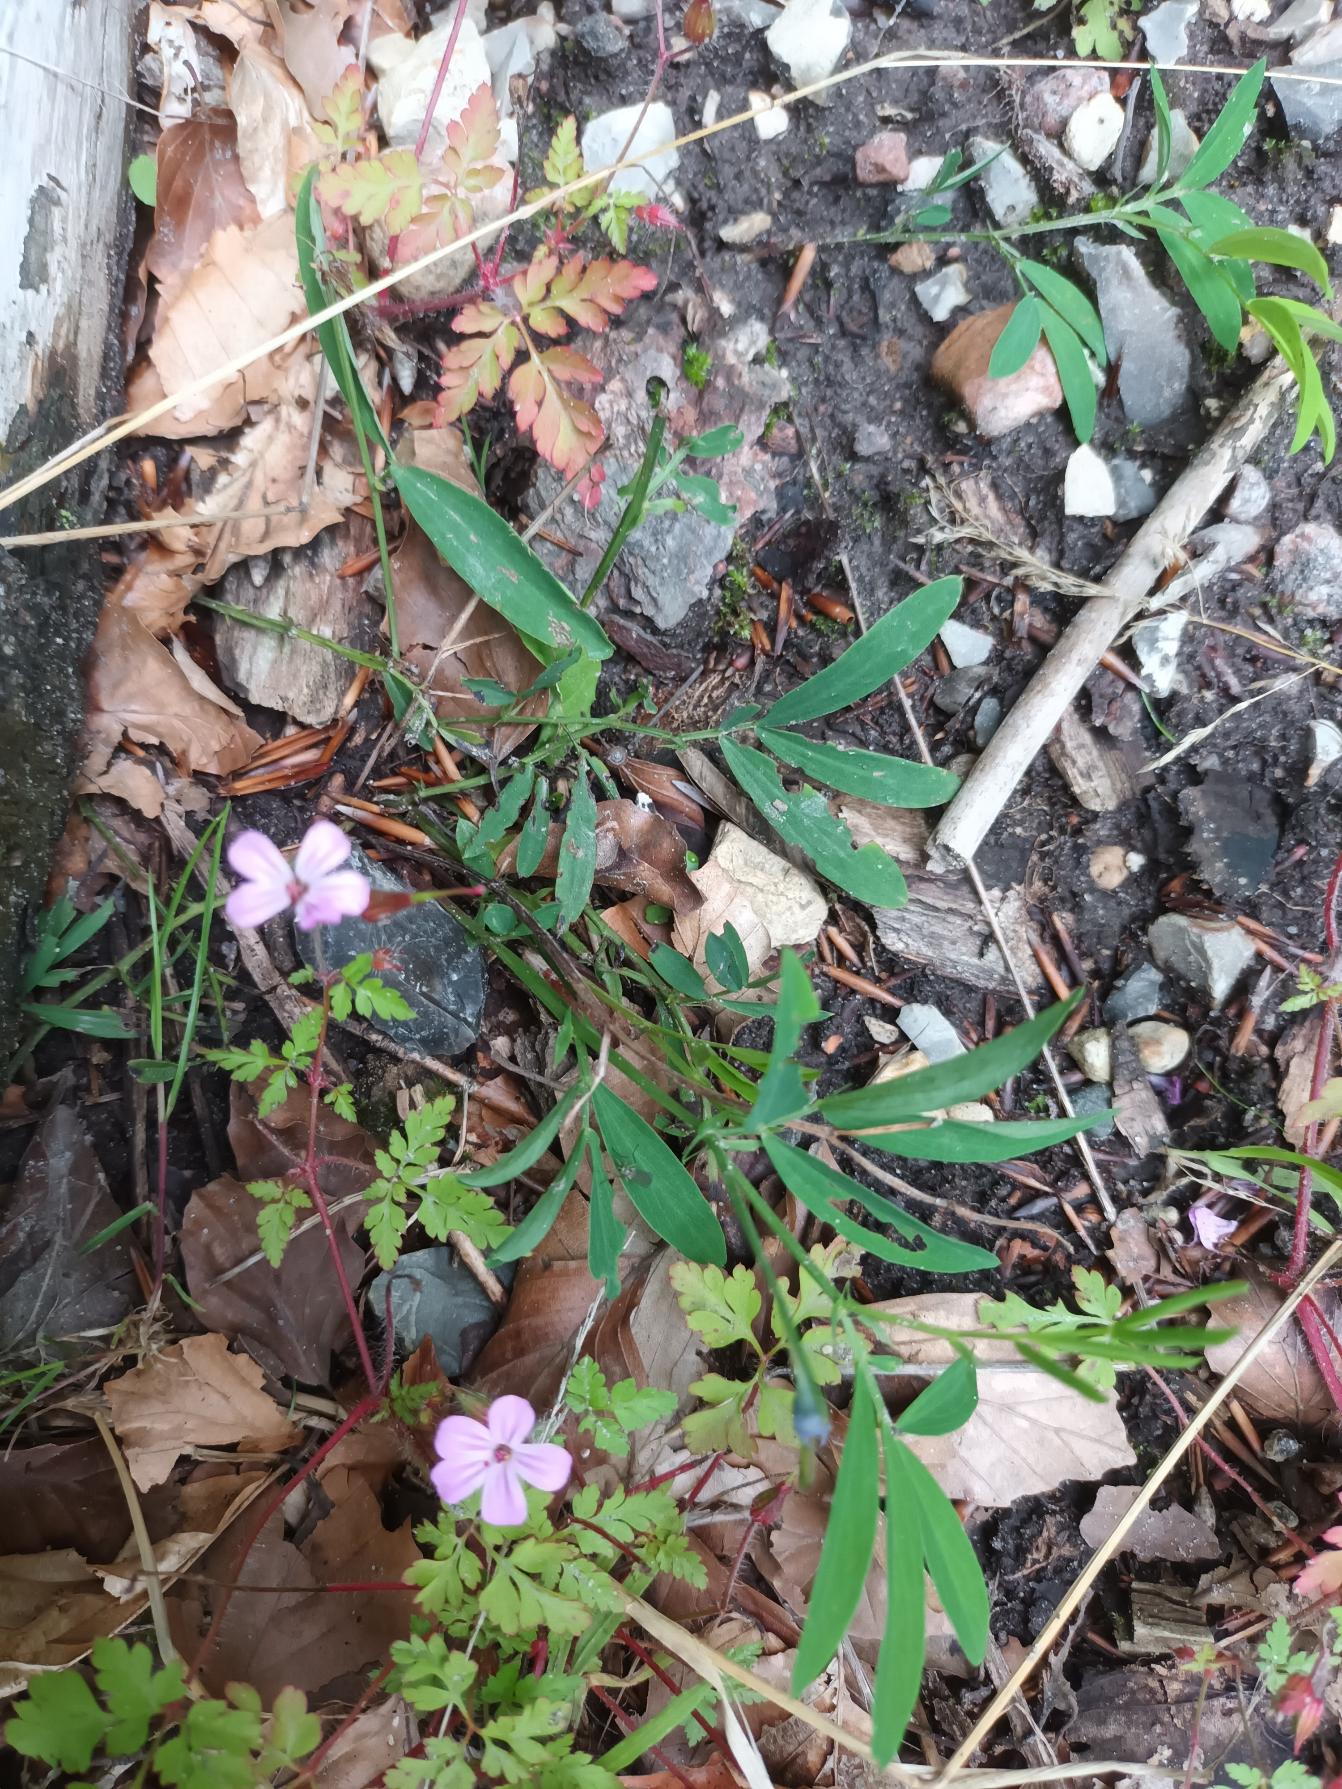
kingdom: Plantae
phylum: Tracheophyta
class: Magnoliopsida
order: Fabales
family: Fabaceae
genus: Lathyrus
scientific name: Lathyrus linifolius
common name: Krat-fladbælg
